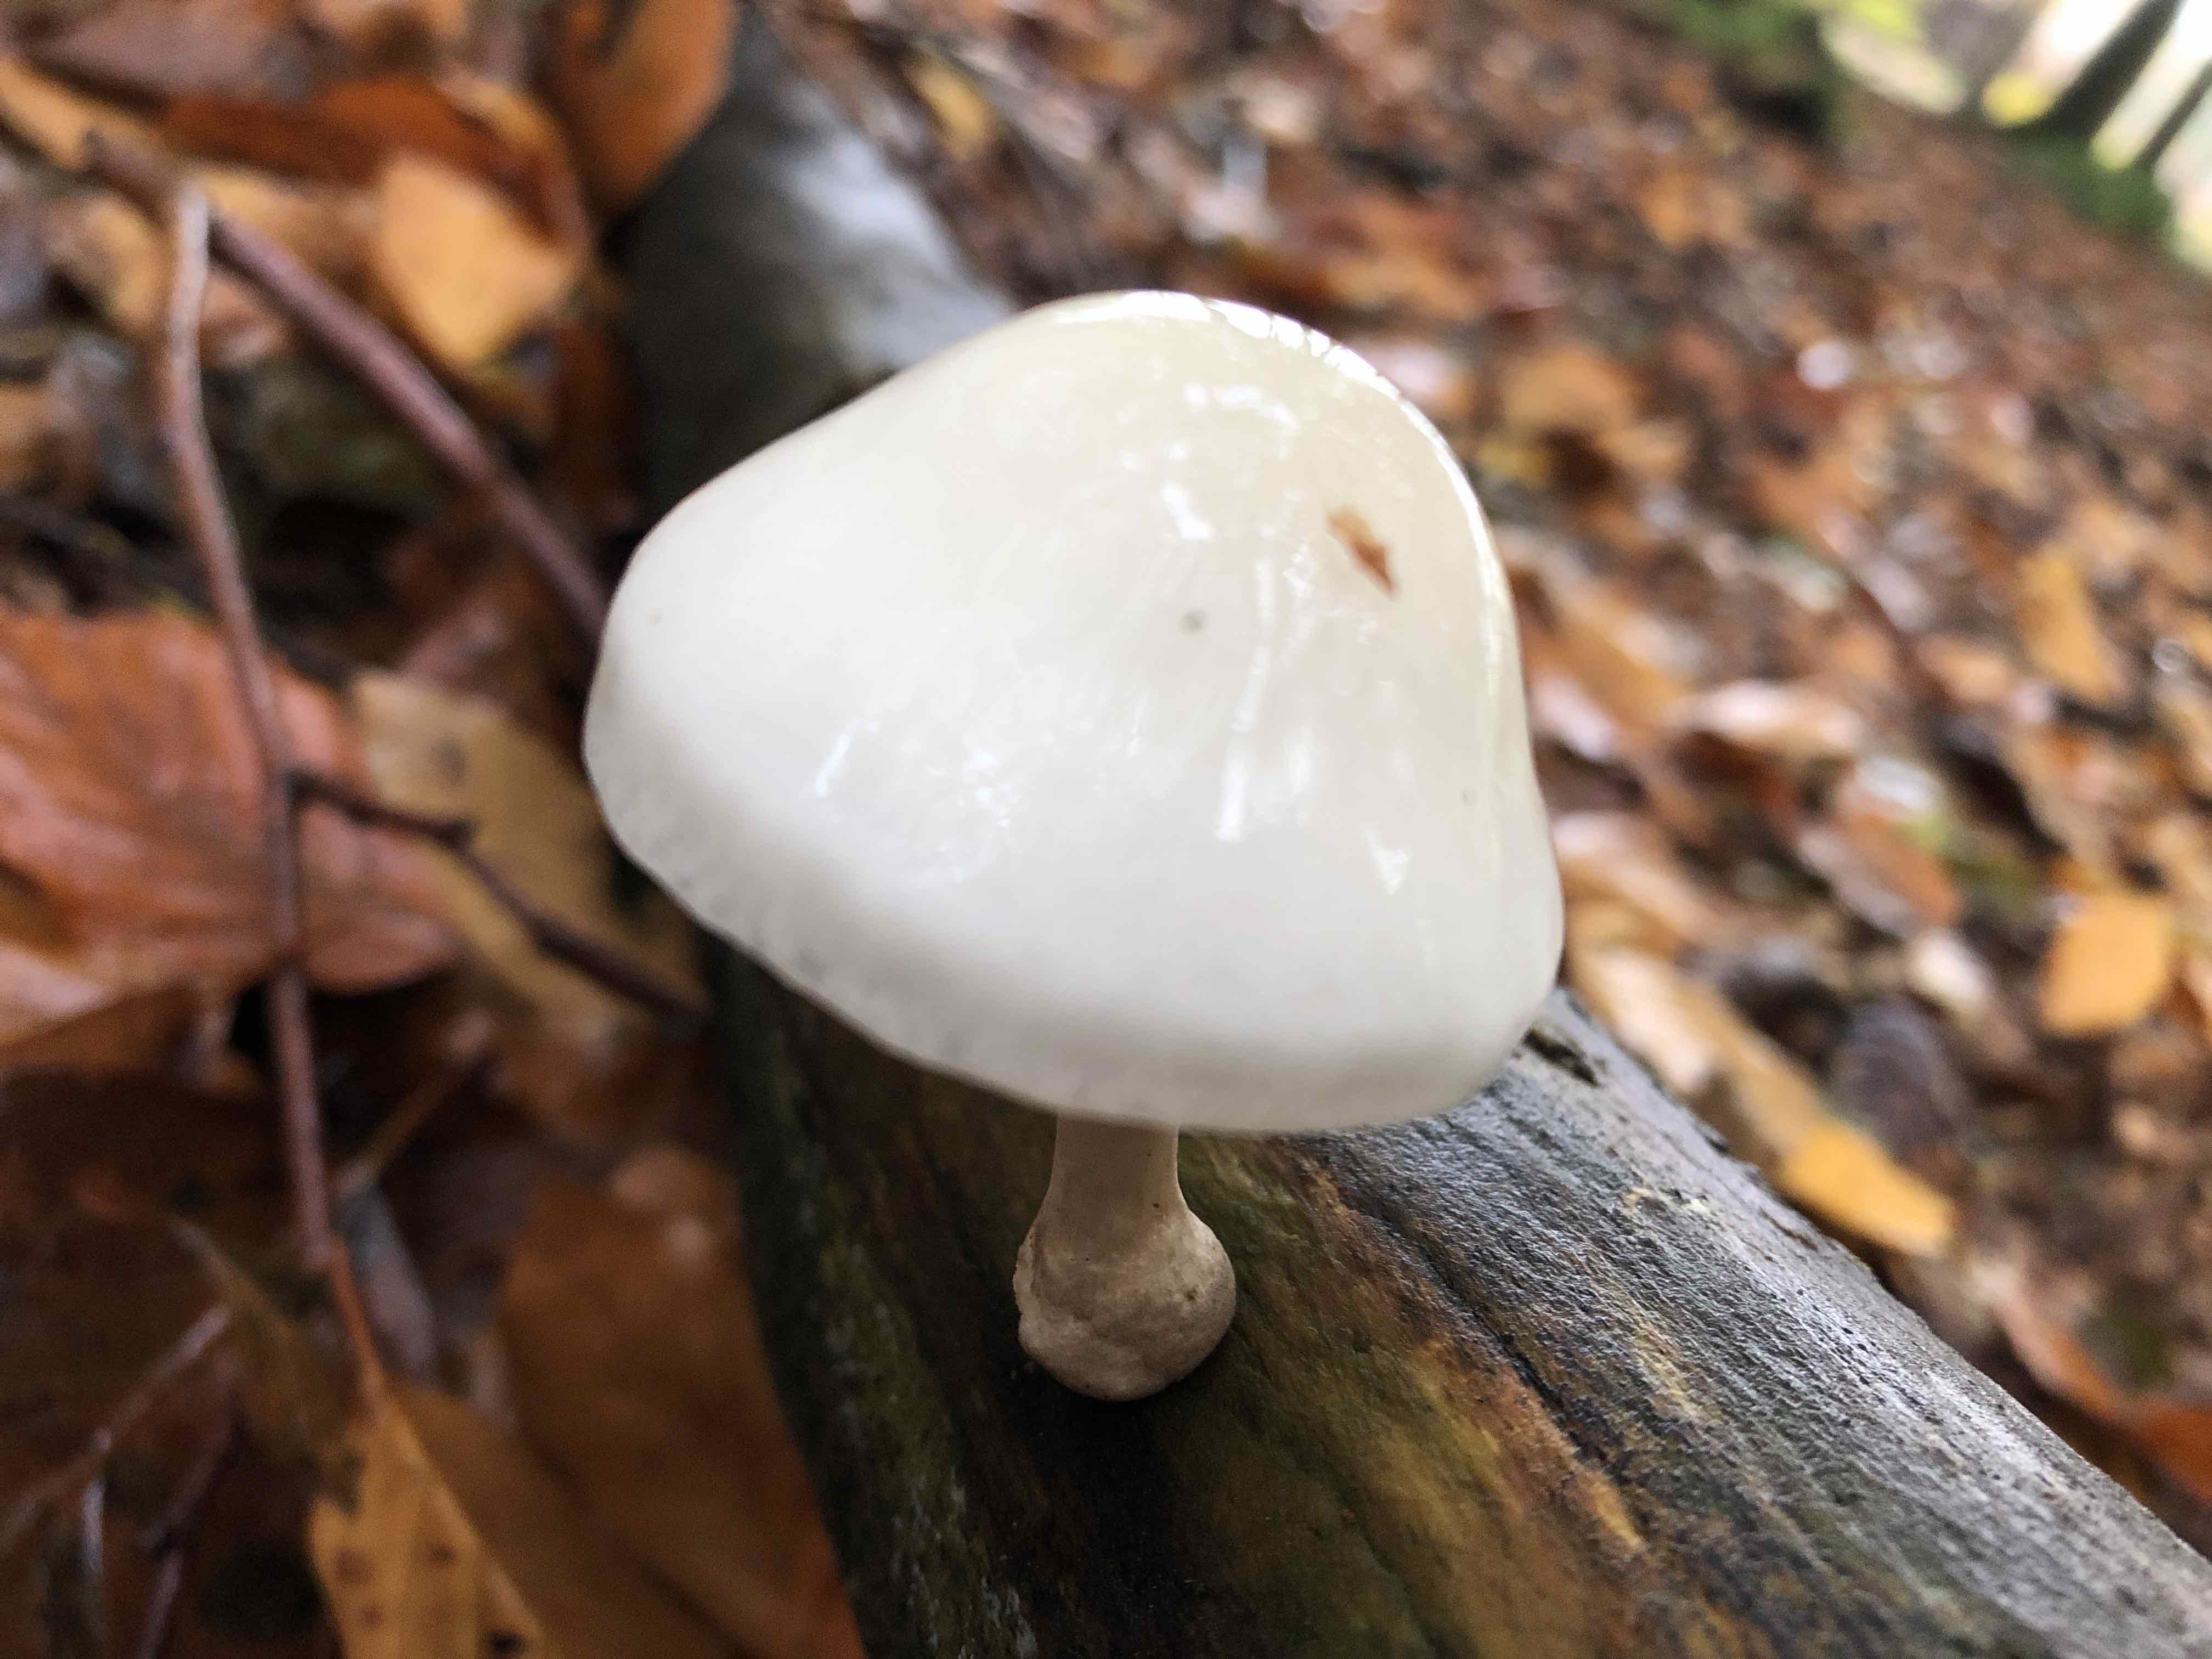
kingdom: Fungi
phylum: Basidiomycota
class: Agaricomycetes
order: Agaricales
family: Physalacriaceae
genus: Mucidula
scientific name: Mucidula mucida
